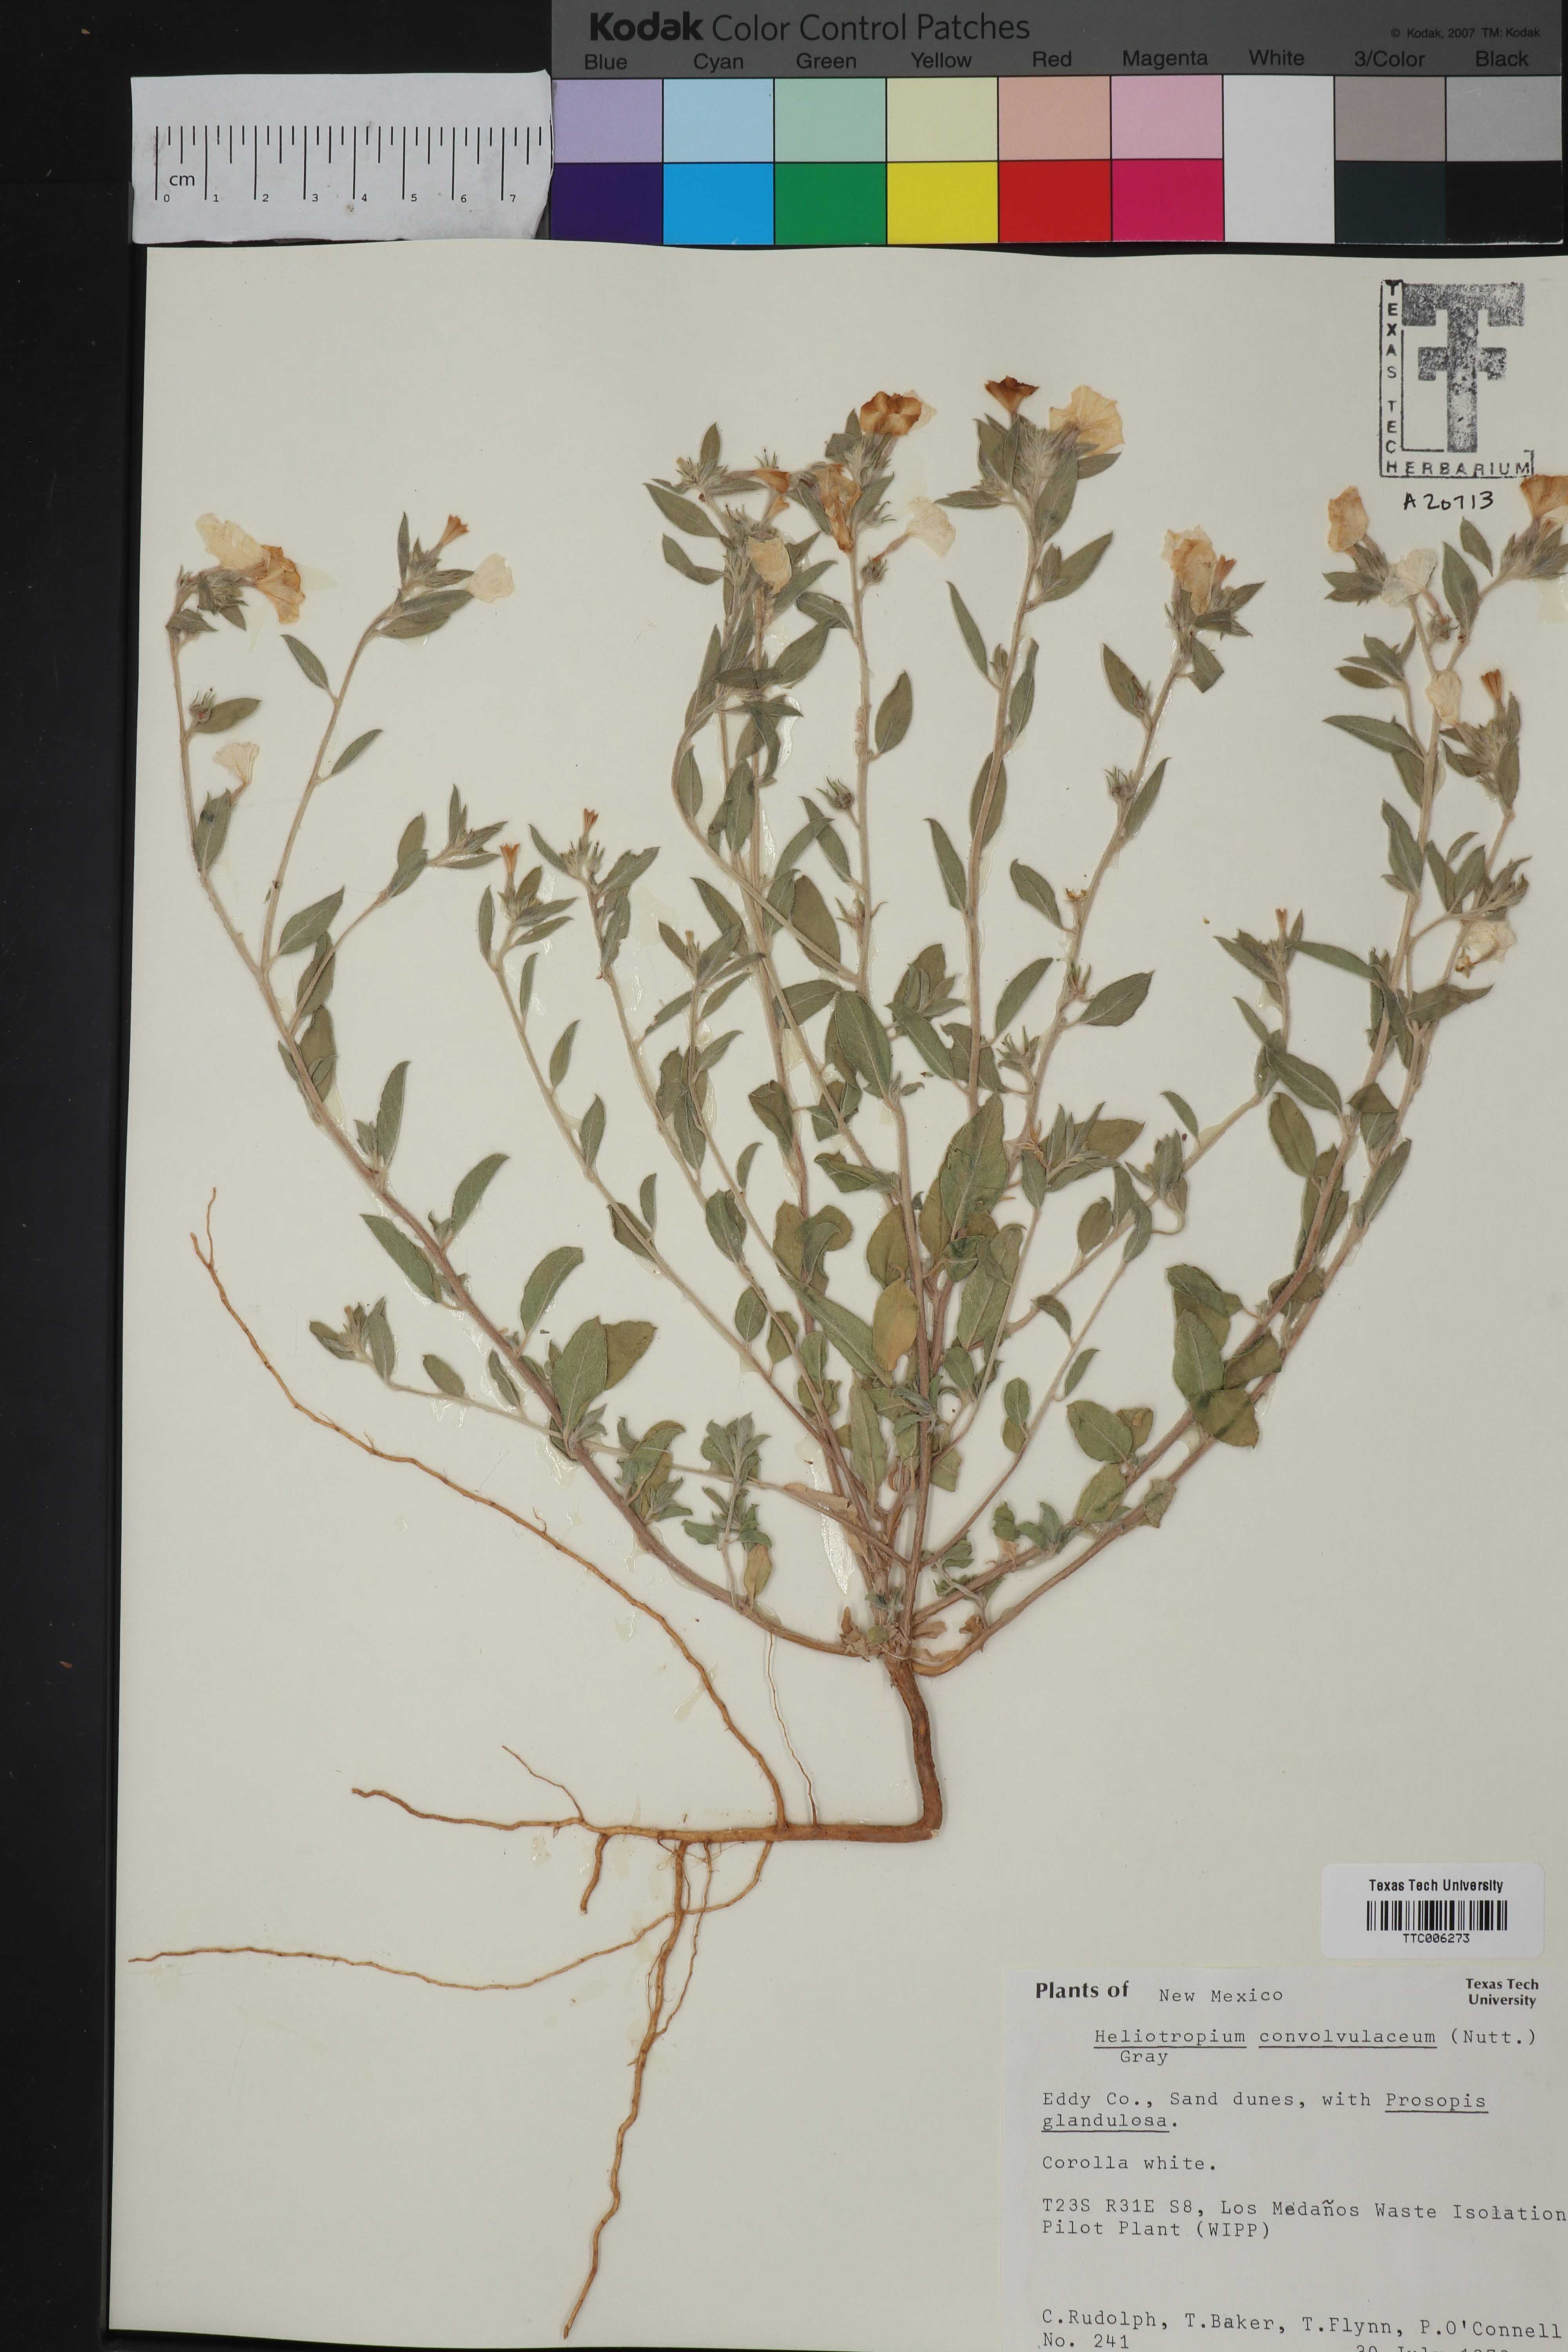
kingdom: Plantae
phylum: Tracheophyta
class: Magnoliopsida
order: Boraginales
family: Heliotropiaceae
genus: Euploca
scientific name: Euploca convolvulacea
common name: Bindweed heliotrope
